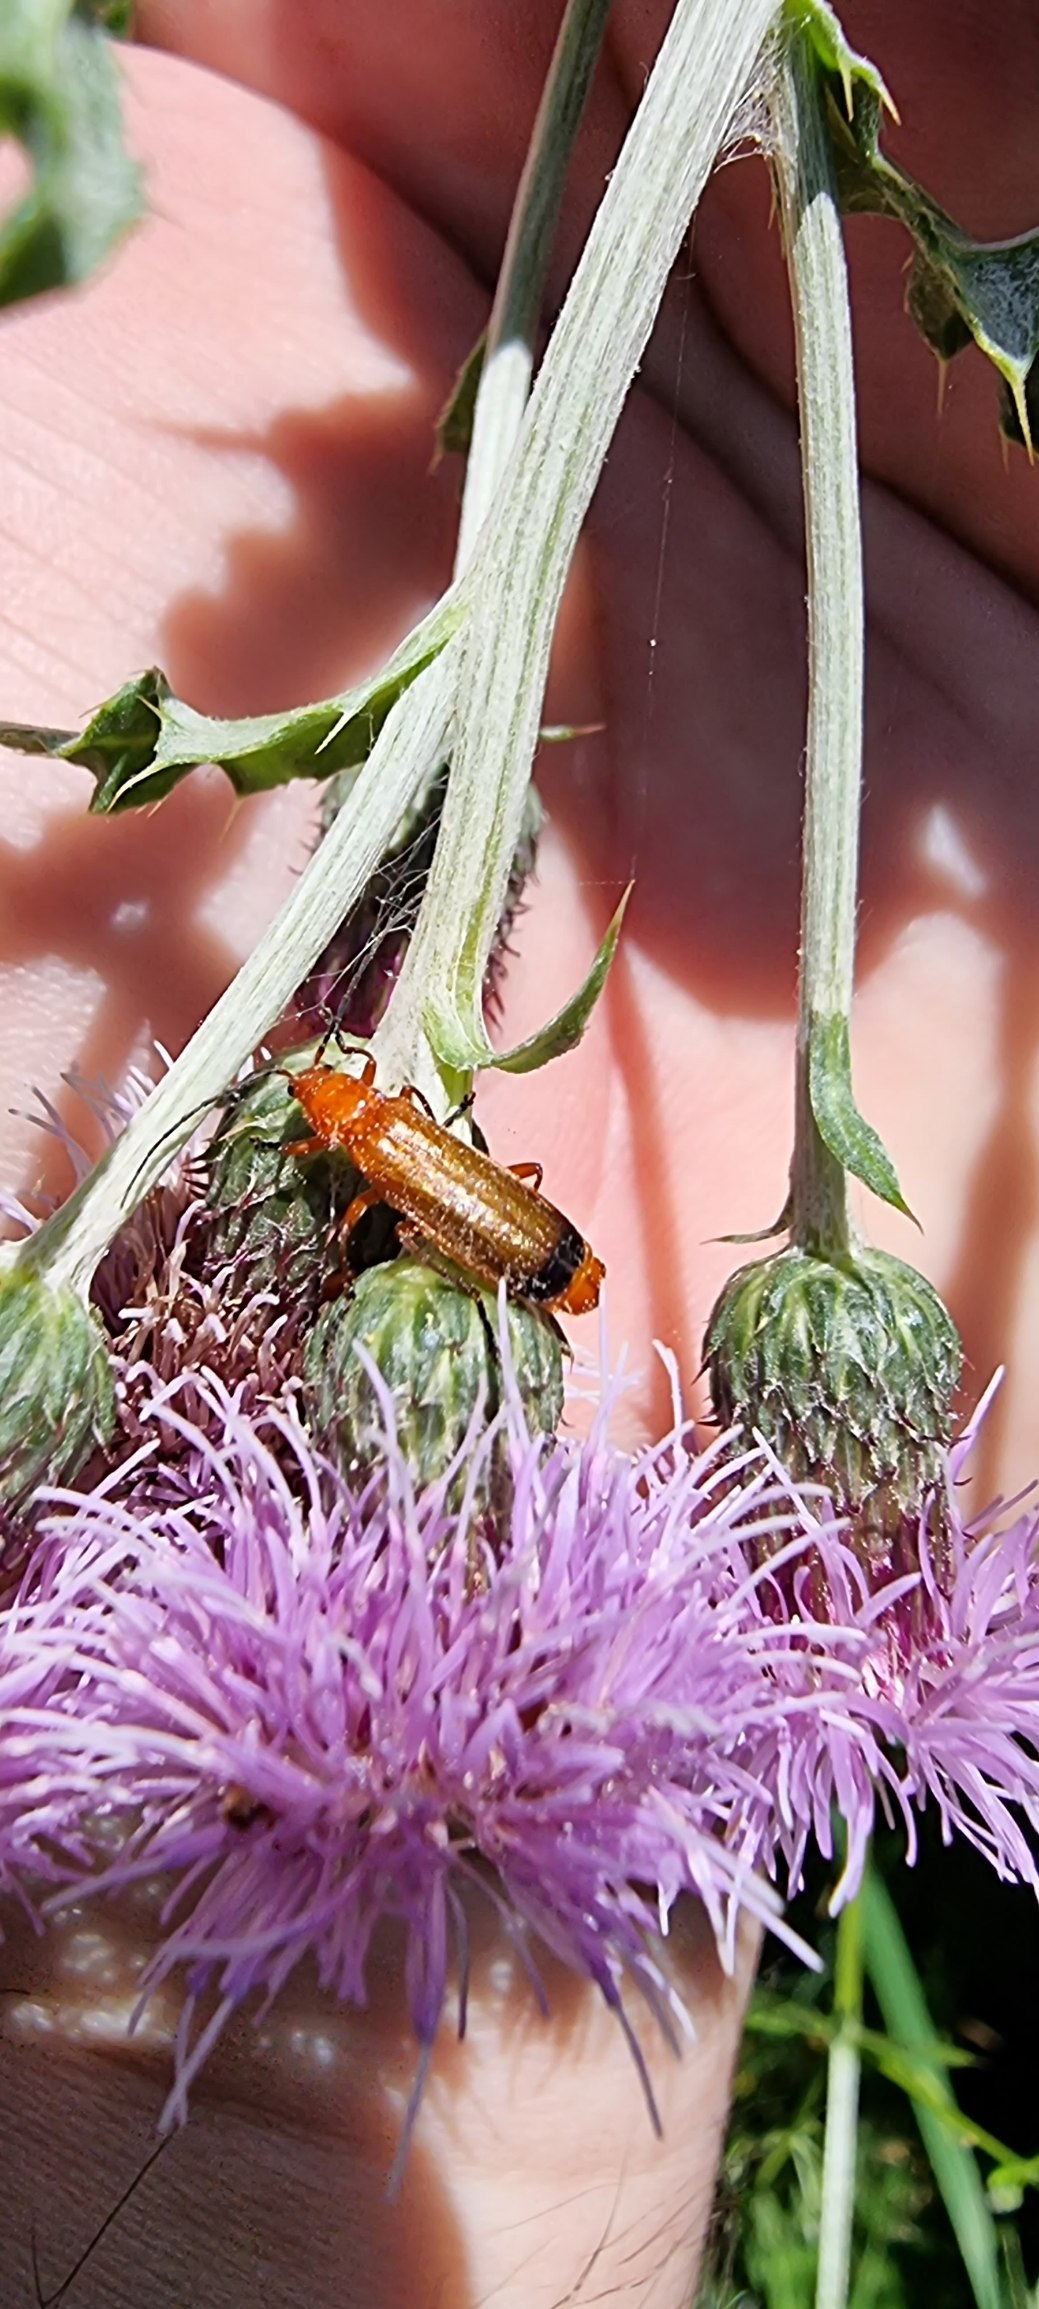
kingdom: Animalia
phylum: Arthropoda
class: Insecta
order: Coleoptera
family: Cantharidae
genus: Rhagonycha
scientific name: Rhagonycha fulva
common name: Præstebille
